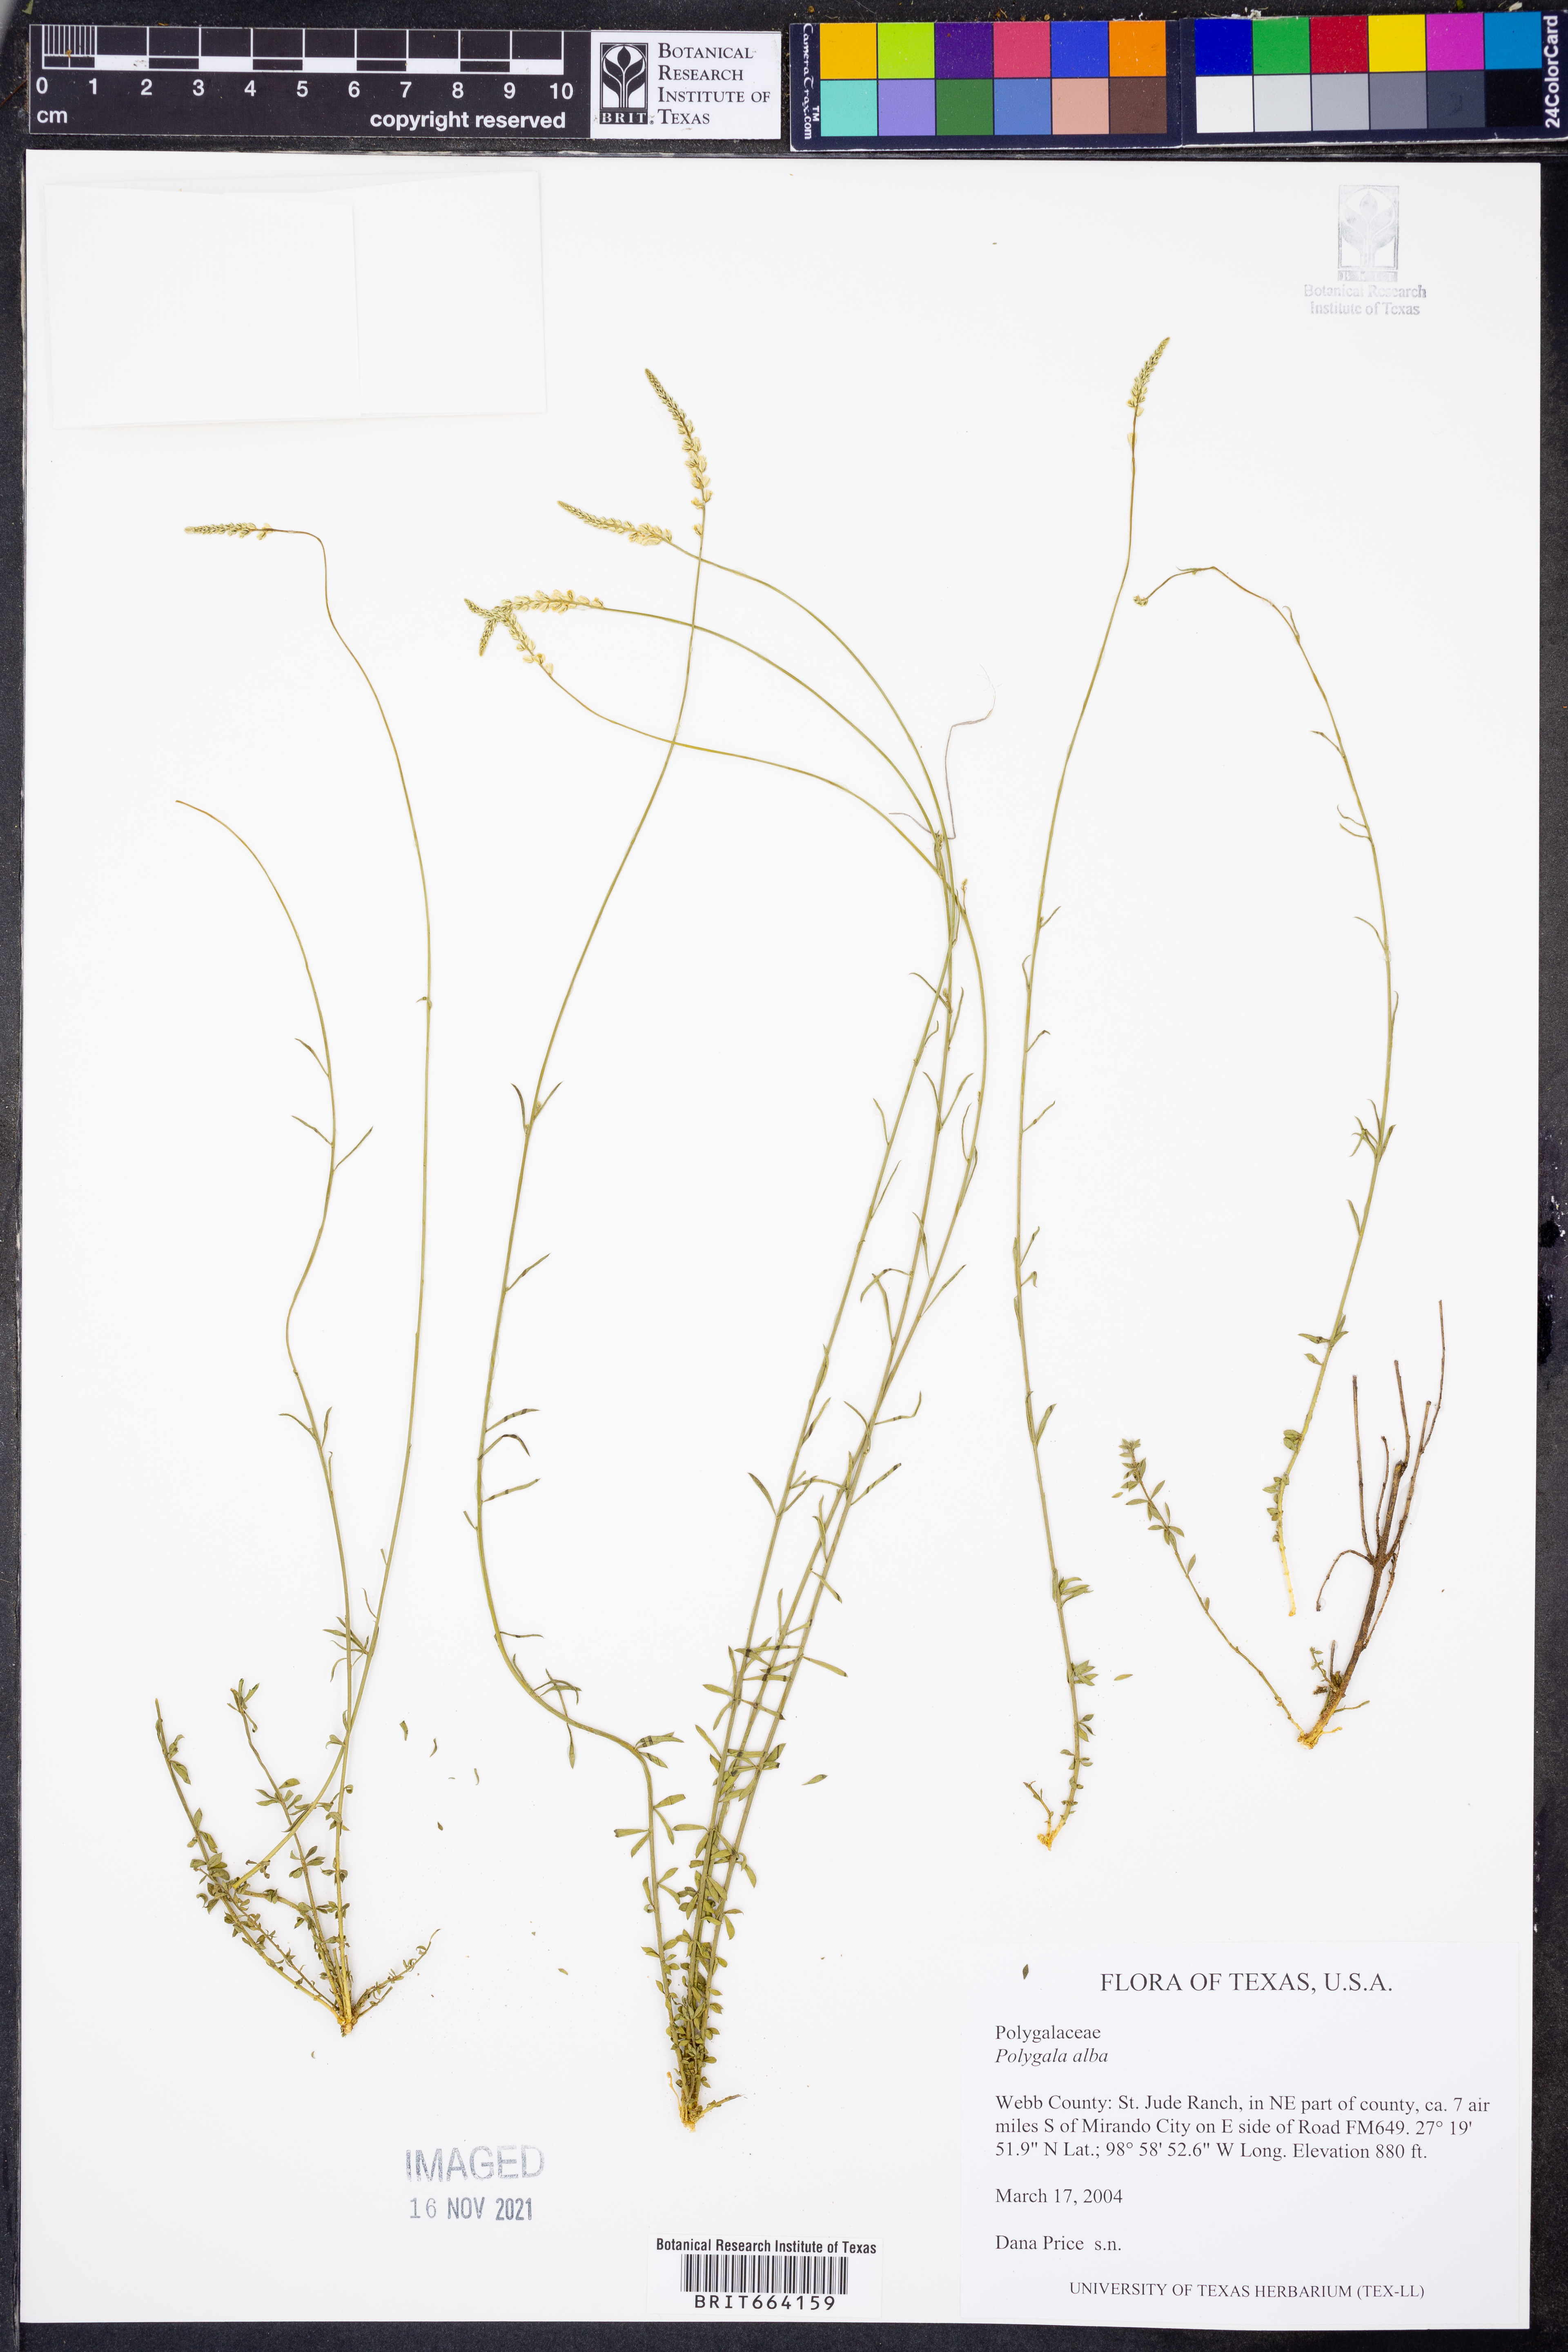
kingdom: Plantae
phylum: Tracheophyta
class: Magnoliopsida
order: Fabales
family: Polygalaceae
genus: Polygala
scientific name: Polygala alba
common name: White milkwort
